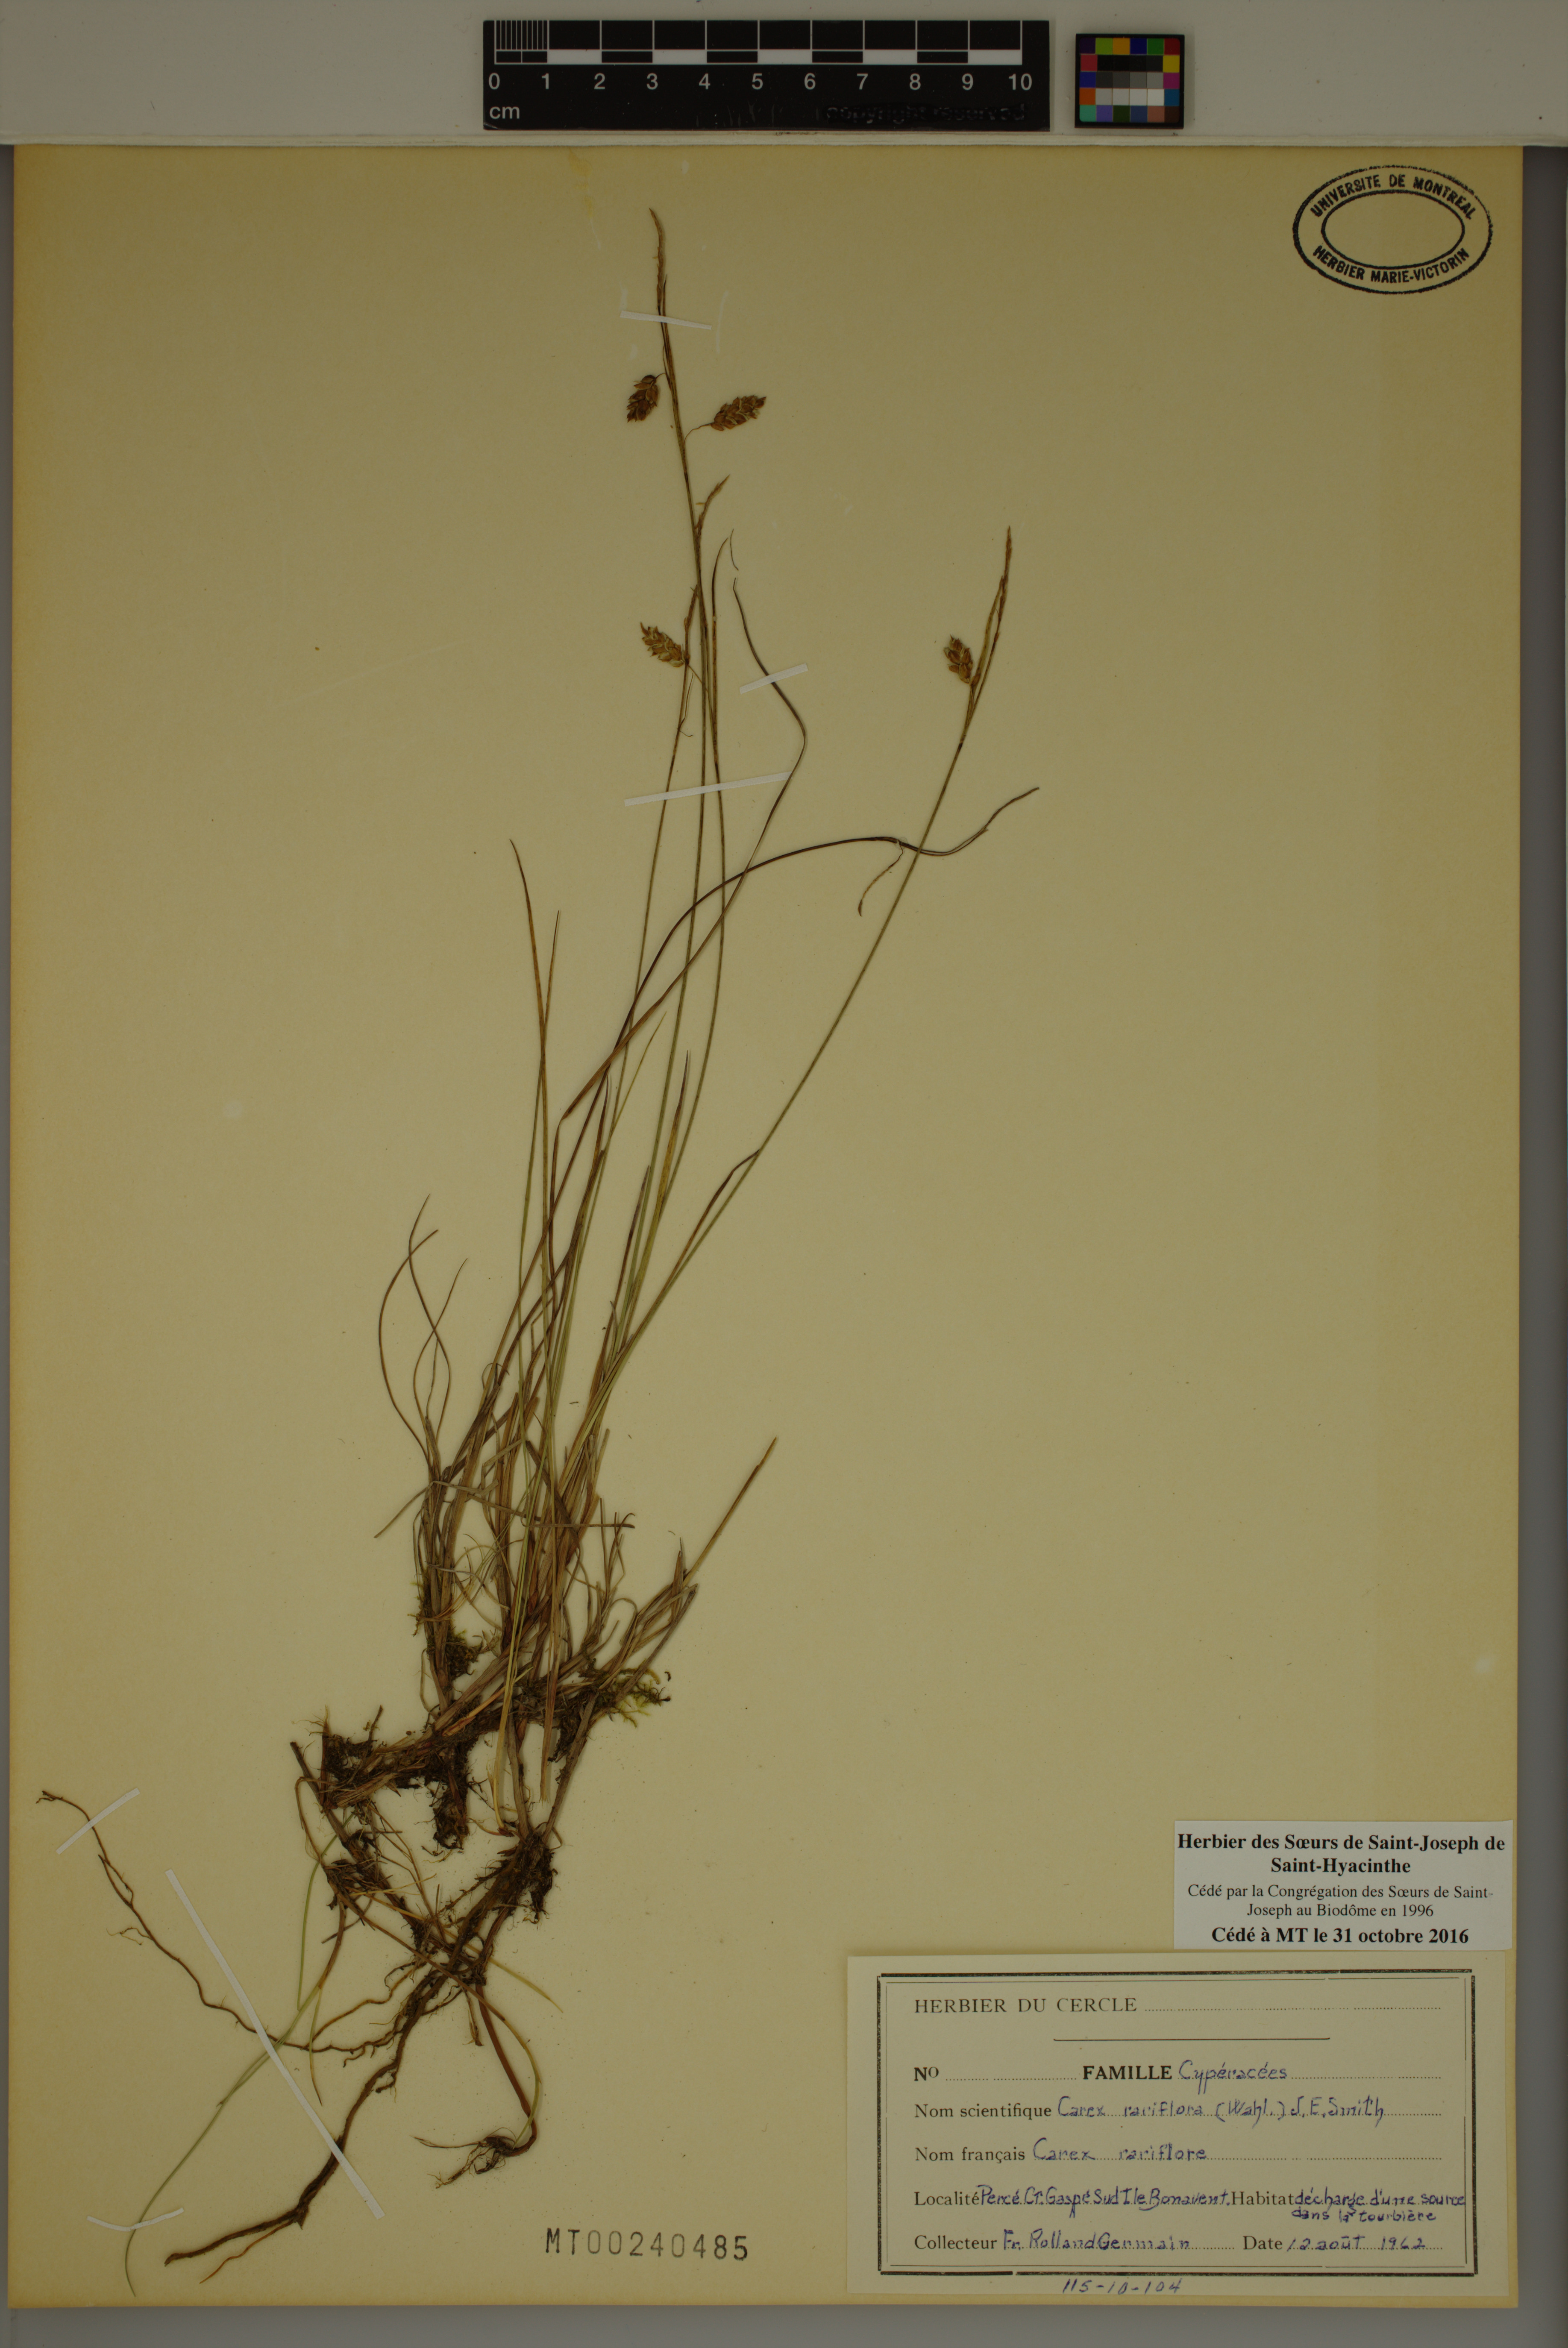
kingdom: Plantae
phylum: Tracheophyta
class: Liliopsida
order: Poales
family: Cyperaceae
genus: Carex
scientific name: Carex rariflora
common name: Loose-flowered alpine sedge
